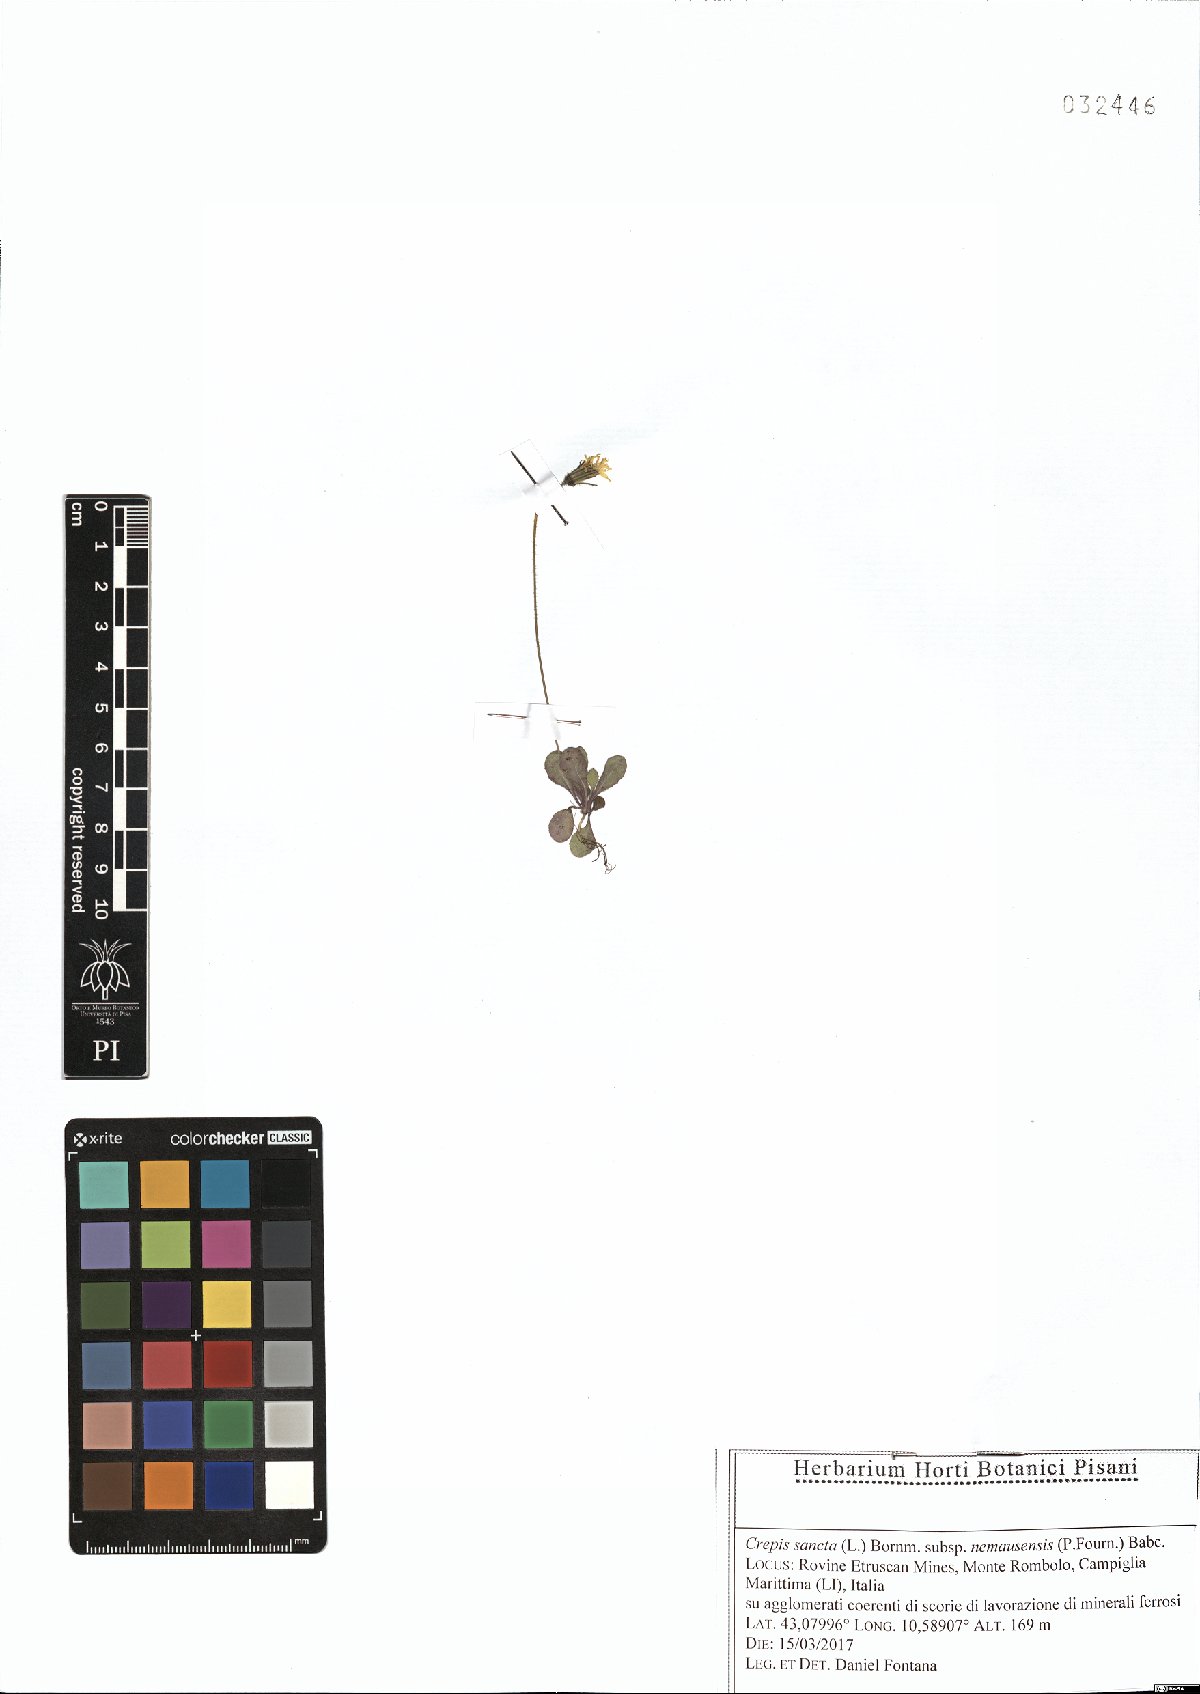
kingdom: Plantae
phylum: Tracheophyta
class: Magnoliopsida
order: Asterales
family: Asteraceae
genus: Crepis
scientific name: Crepis sancta
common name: Hawk's-beard
